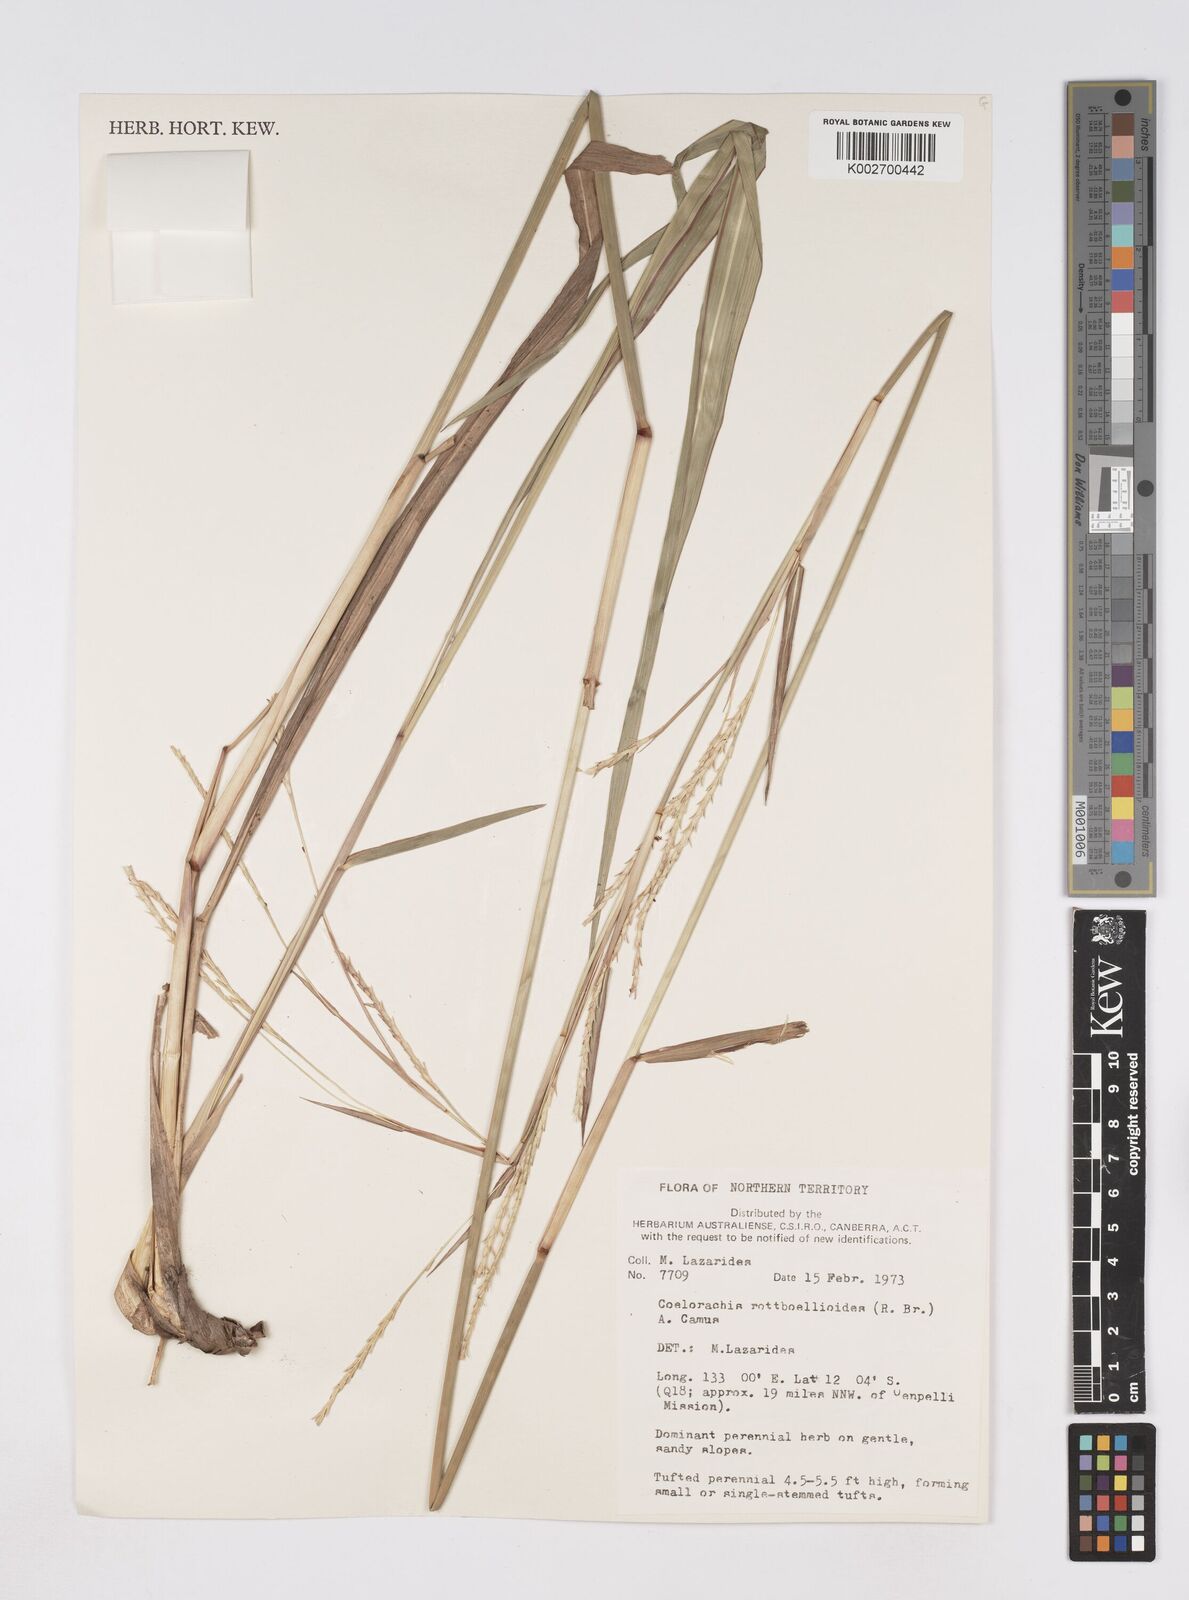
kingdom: Plantae
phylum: Tracheophyta
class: Liliopsida
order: Poales
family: Poaceae
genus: Rottboellia
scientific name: Rottboellia rottboellioides
